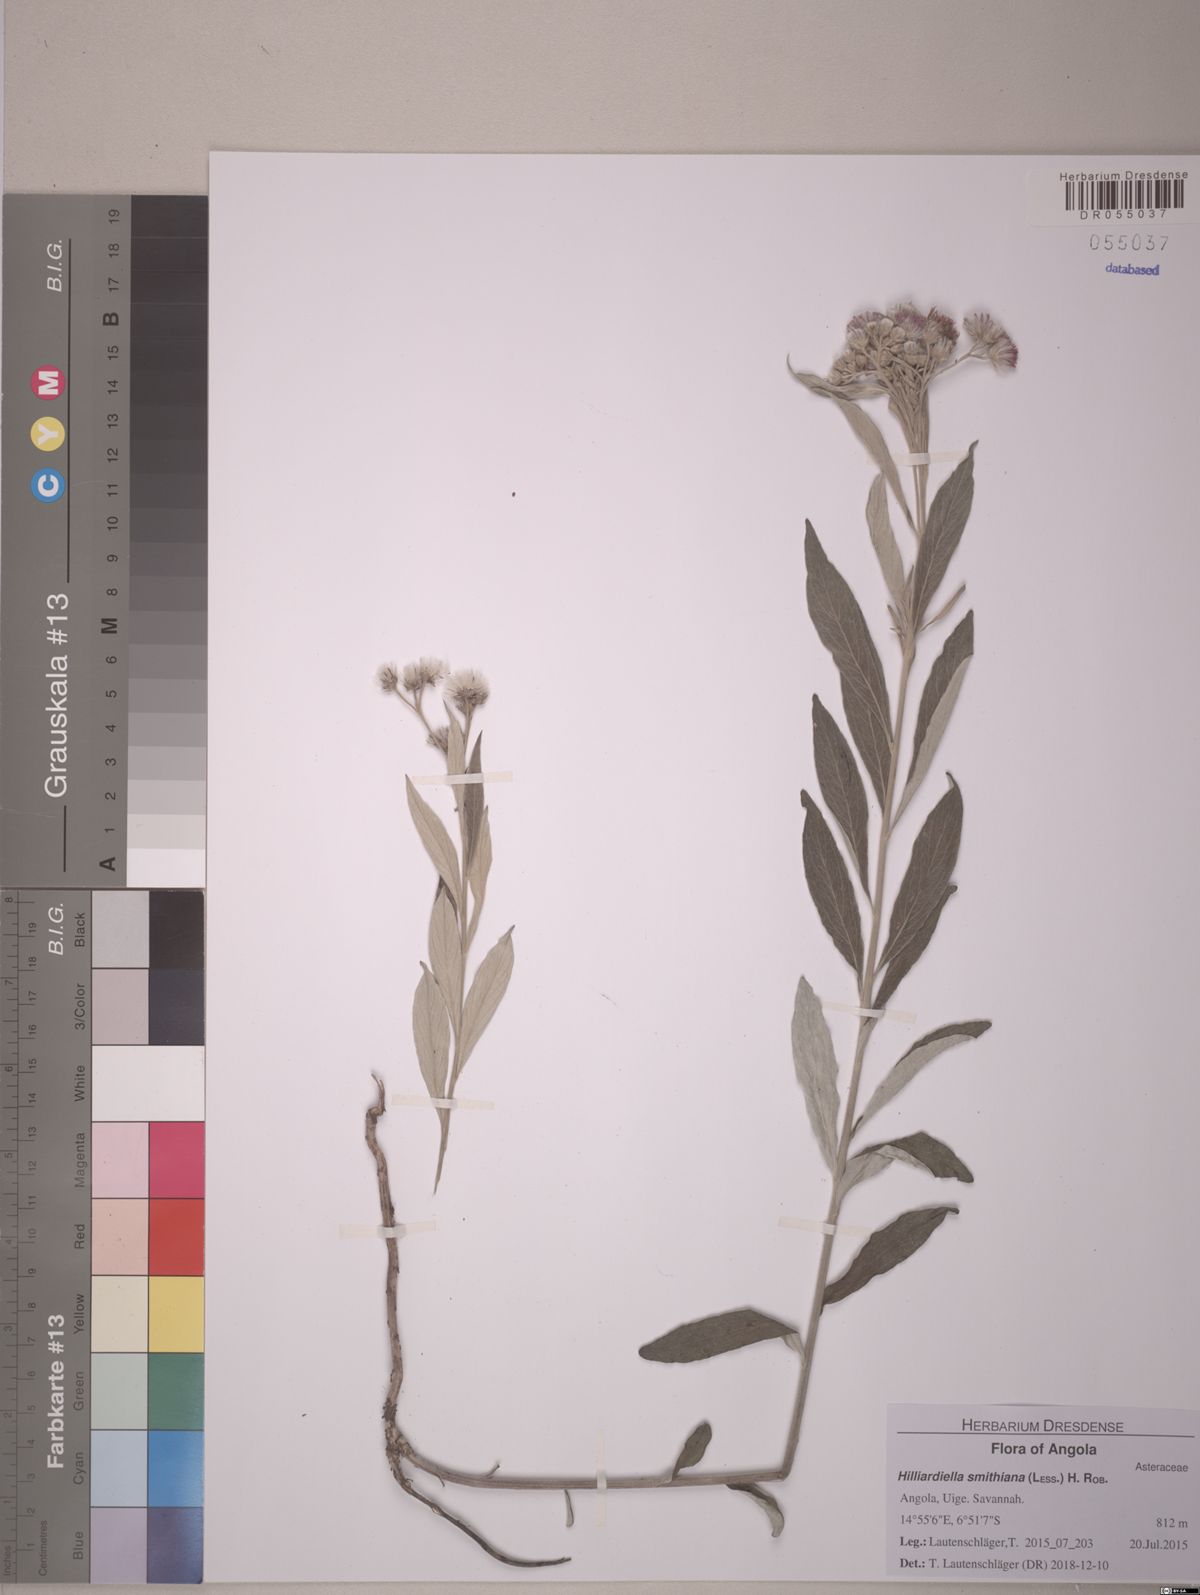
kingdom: Plantae
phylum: Tracheophyta
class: Magnoliopsida
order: Asterales
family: Asteraceae
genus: Hilliardiella
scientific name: Hilliardiella smithiana
